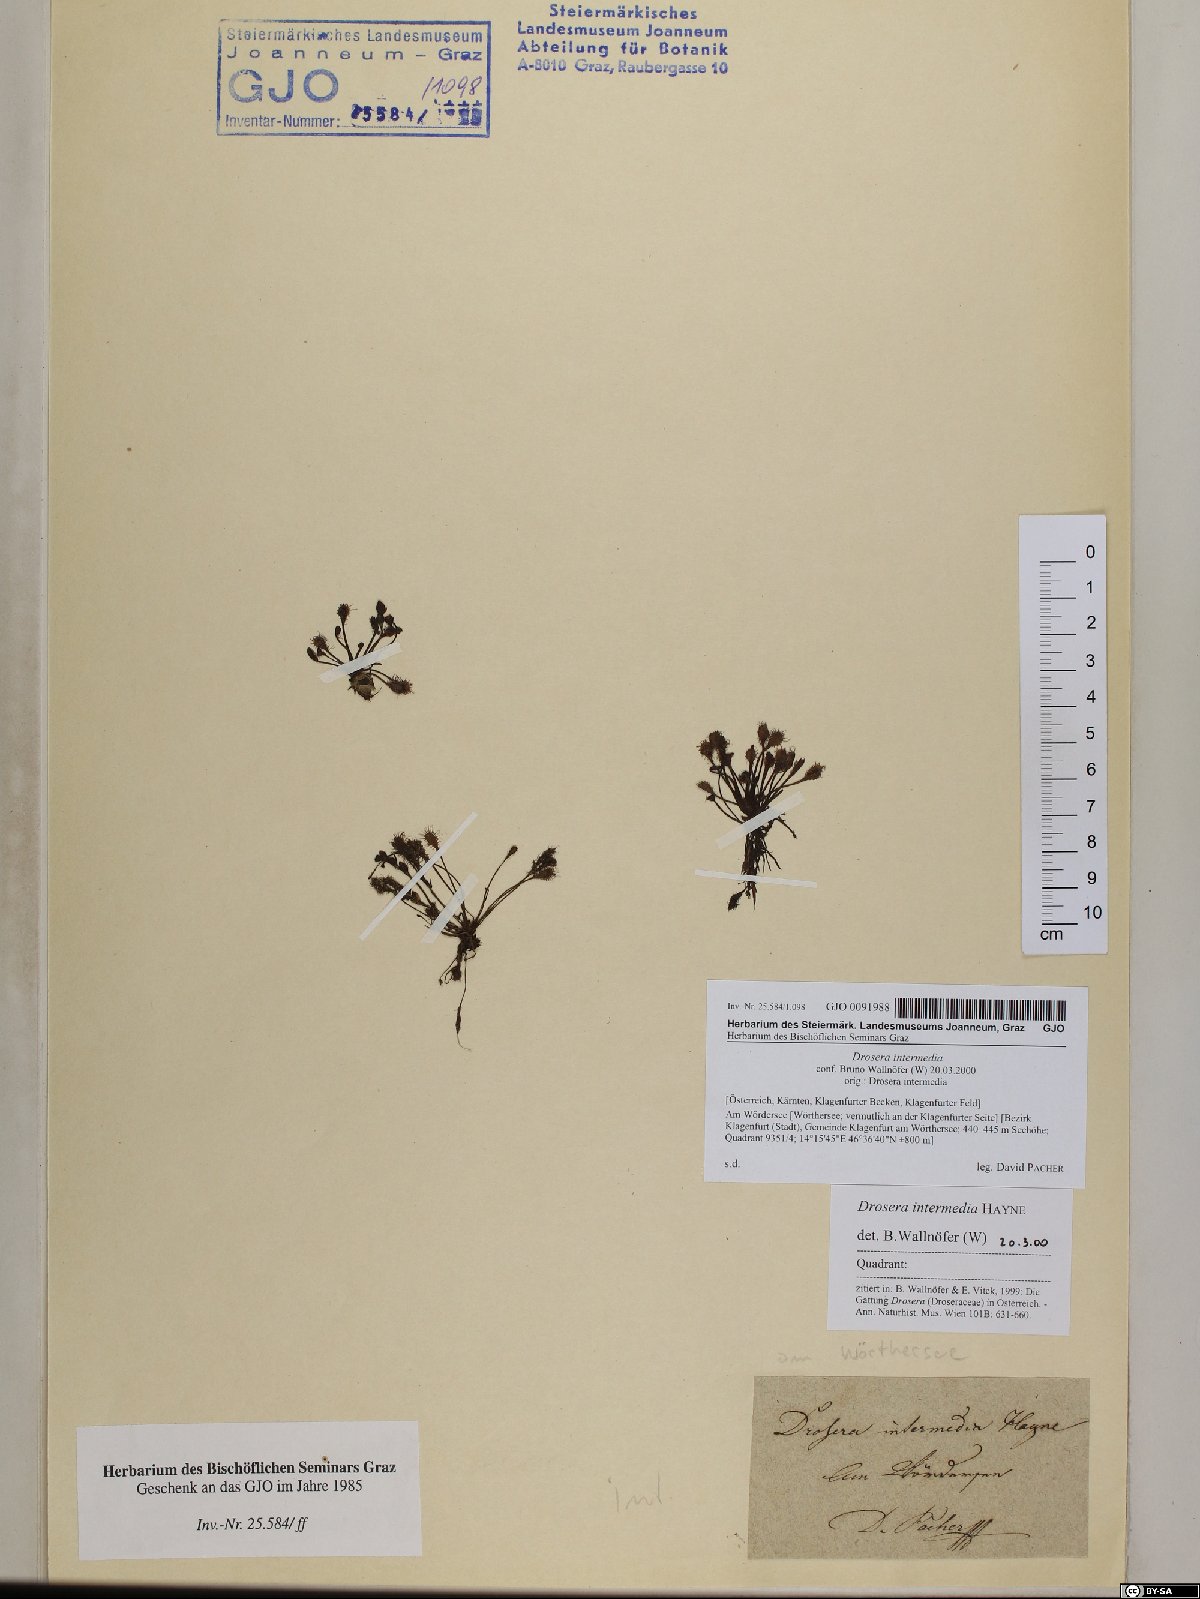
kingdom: Plantae
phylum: Tracheophyta
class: Magnoliopsida
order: Caryophyllales
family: Droseraceae
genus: Drosera
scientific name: Drosera intermedia
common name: Oblong-leaved sundew
